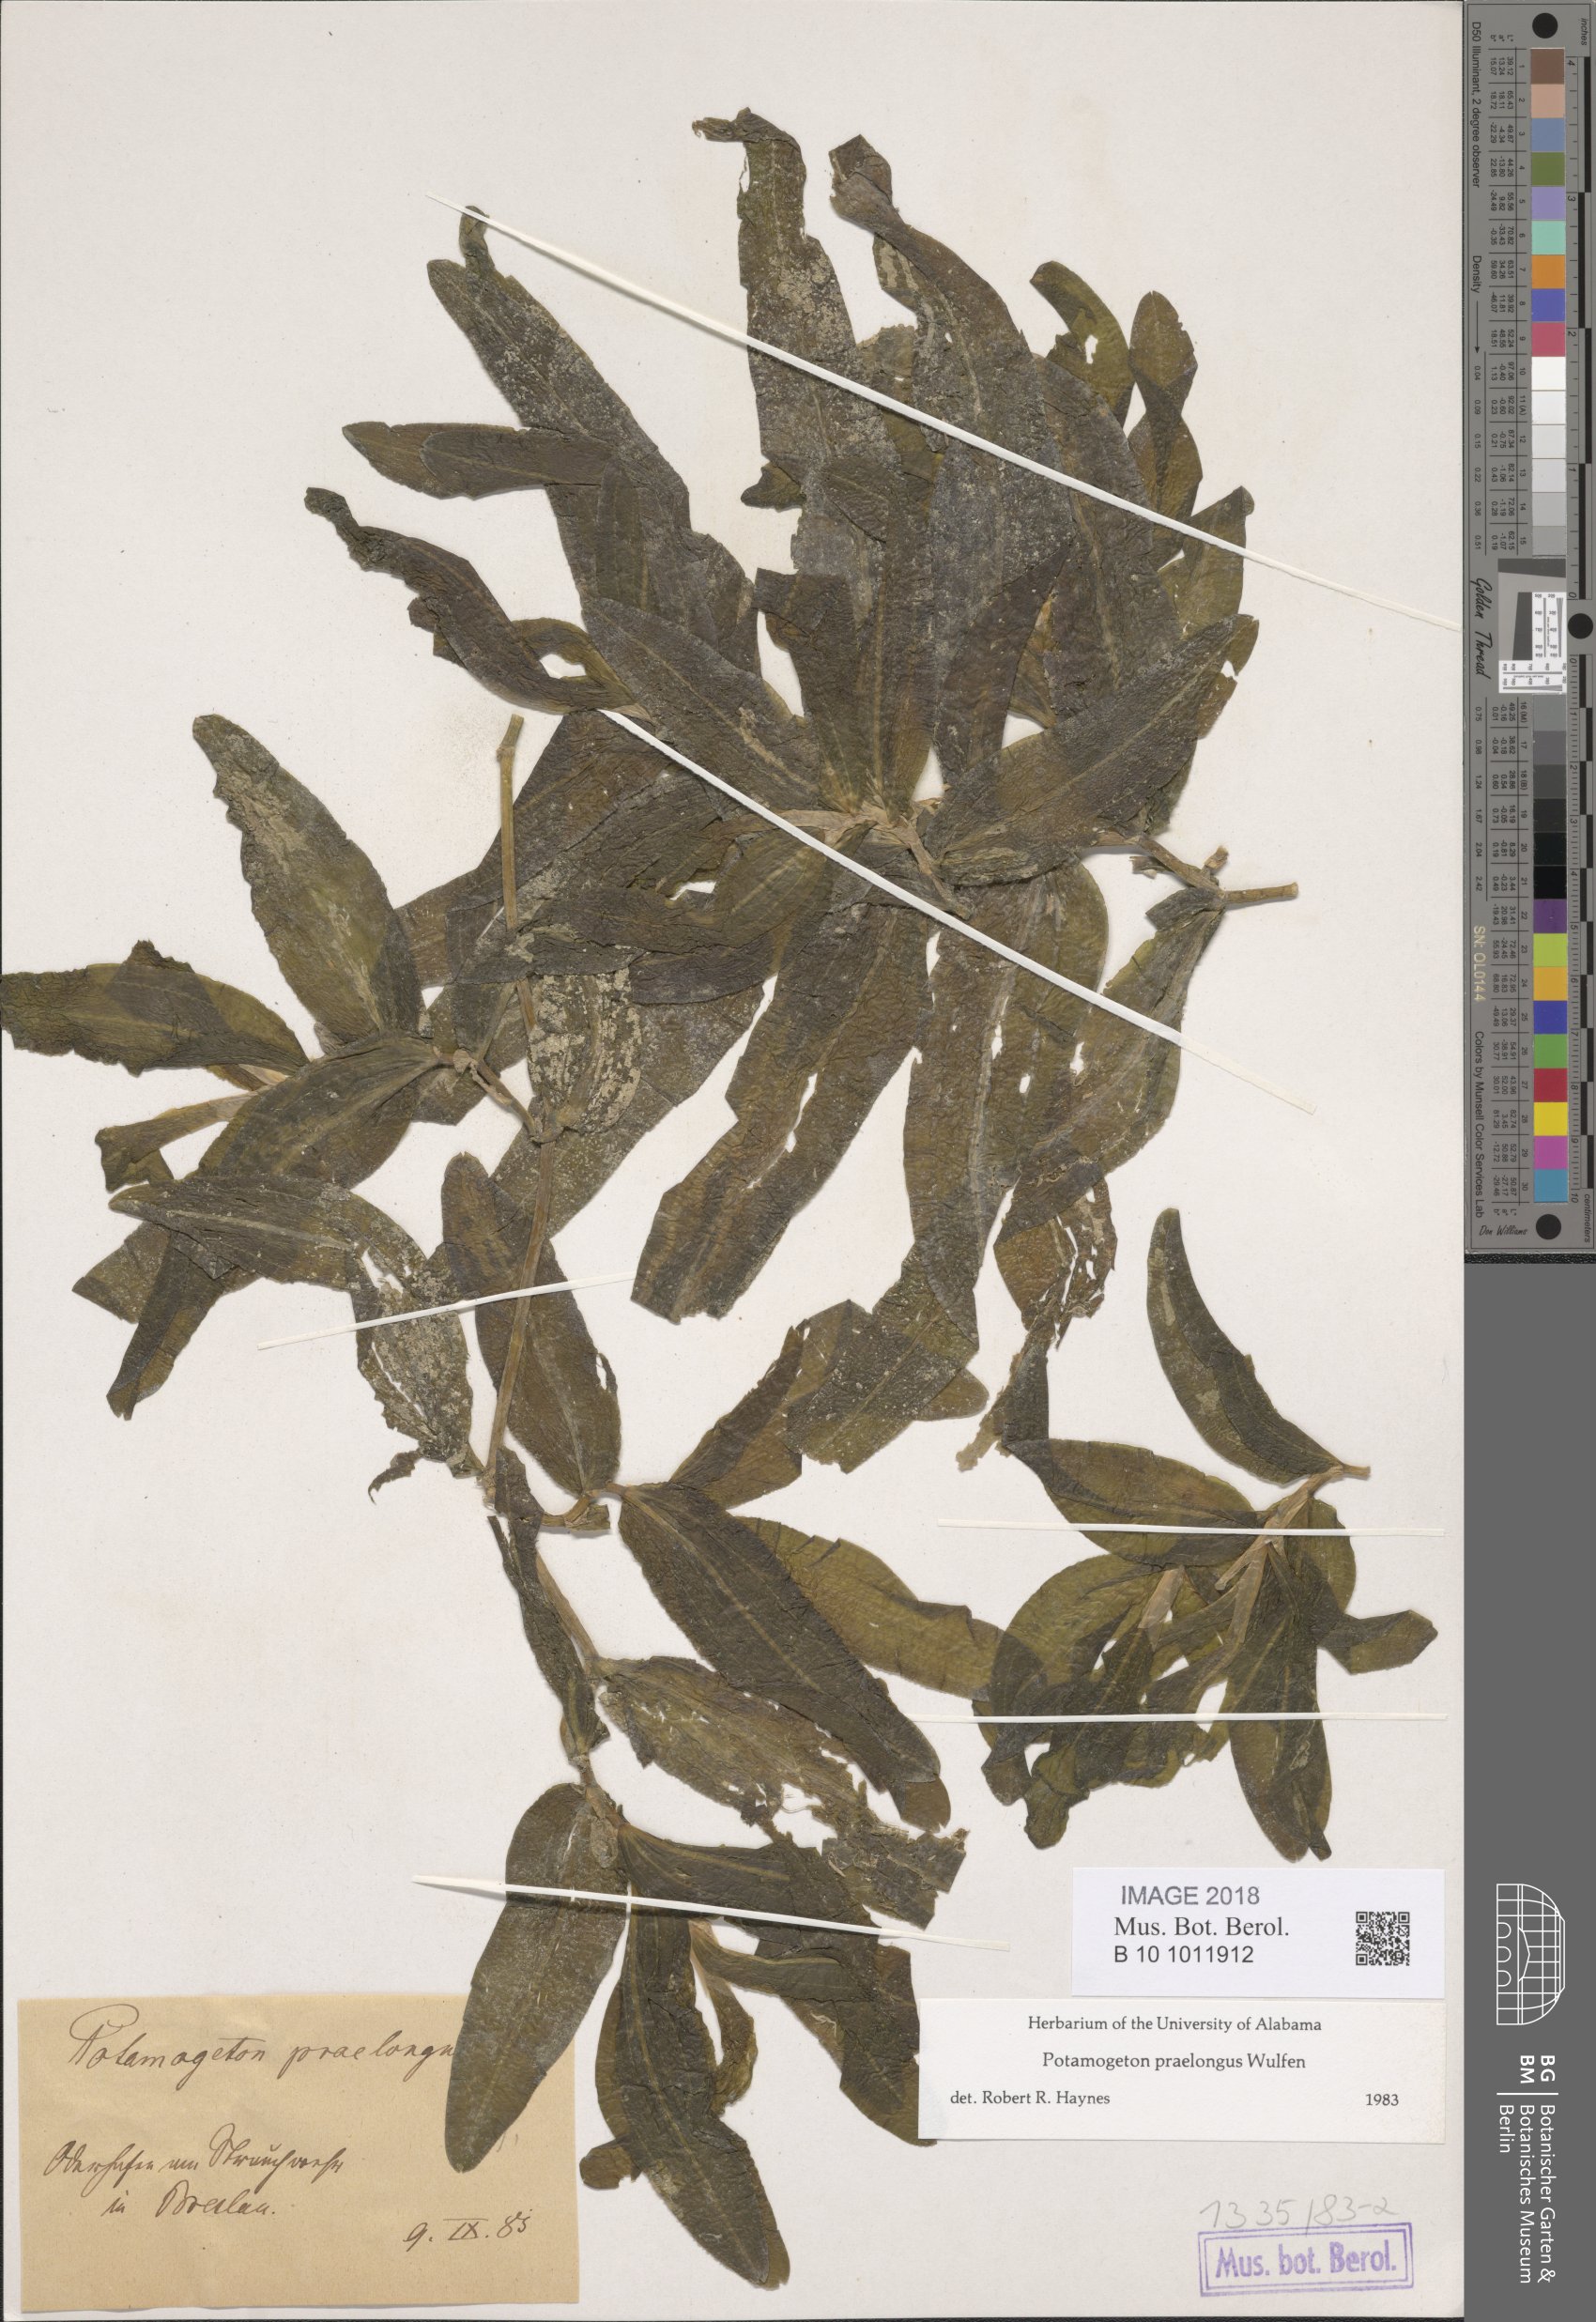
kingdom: Plantae
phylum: Tracheophyta
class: Magnoliopsida
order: Lamiales
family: Orobanchaceae
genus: Euphrasia
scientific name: Euphrasia officinalis
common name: Eyebright
